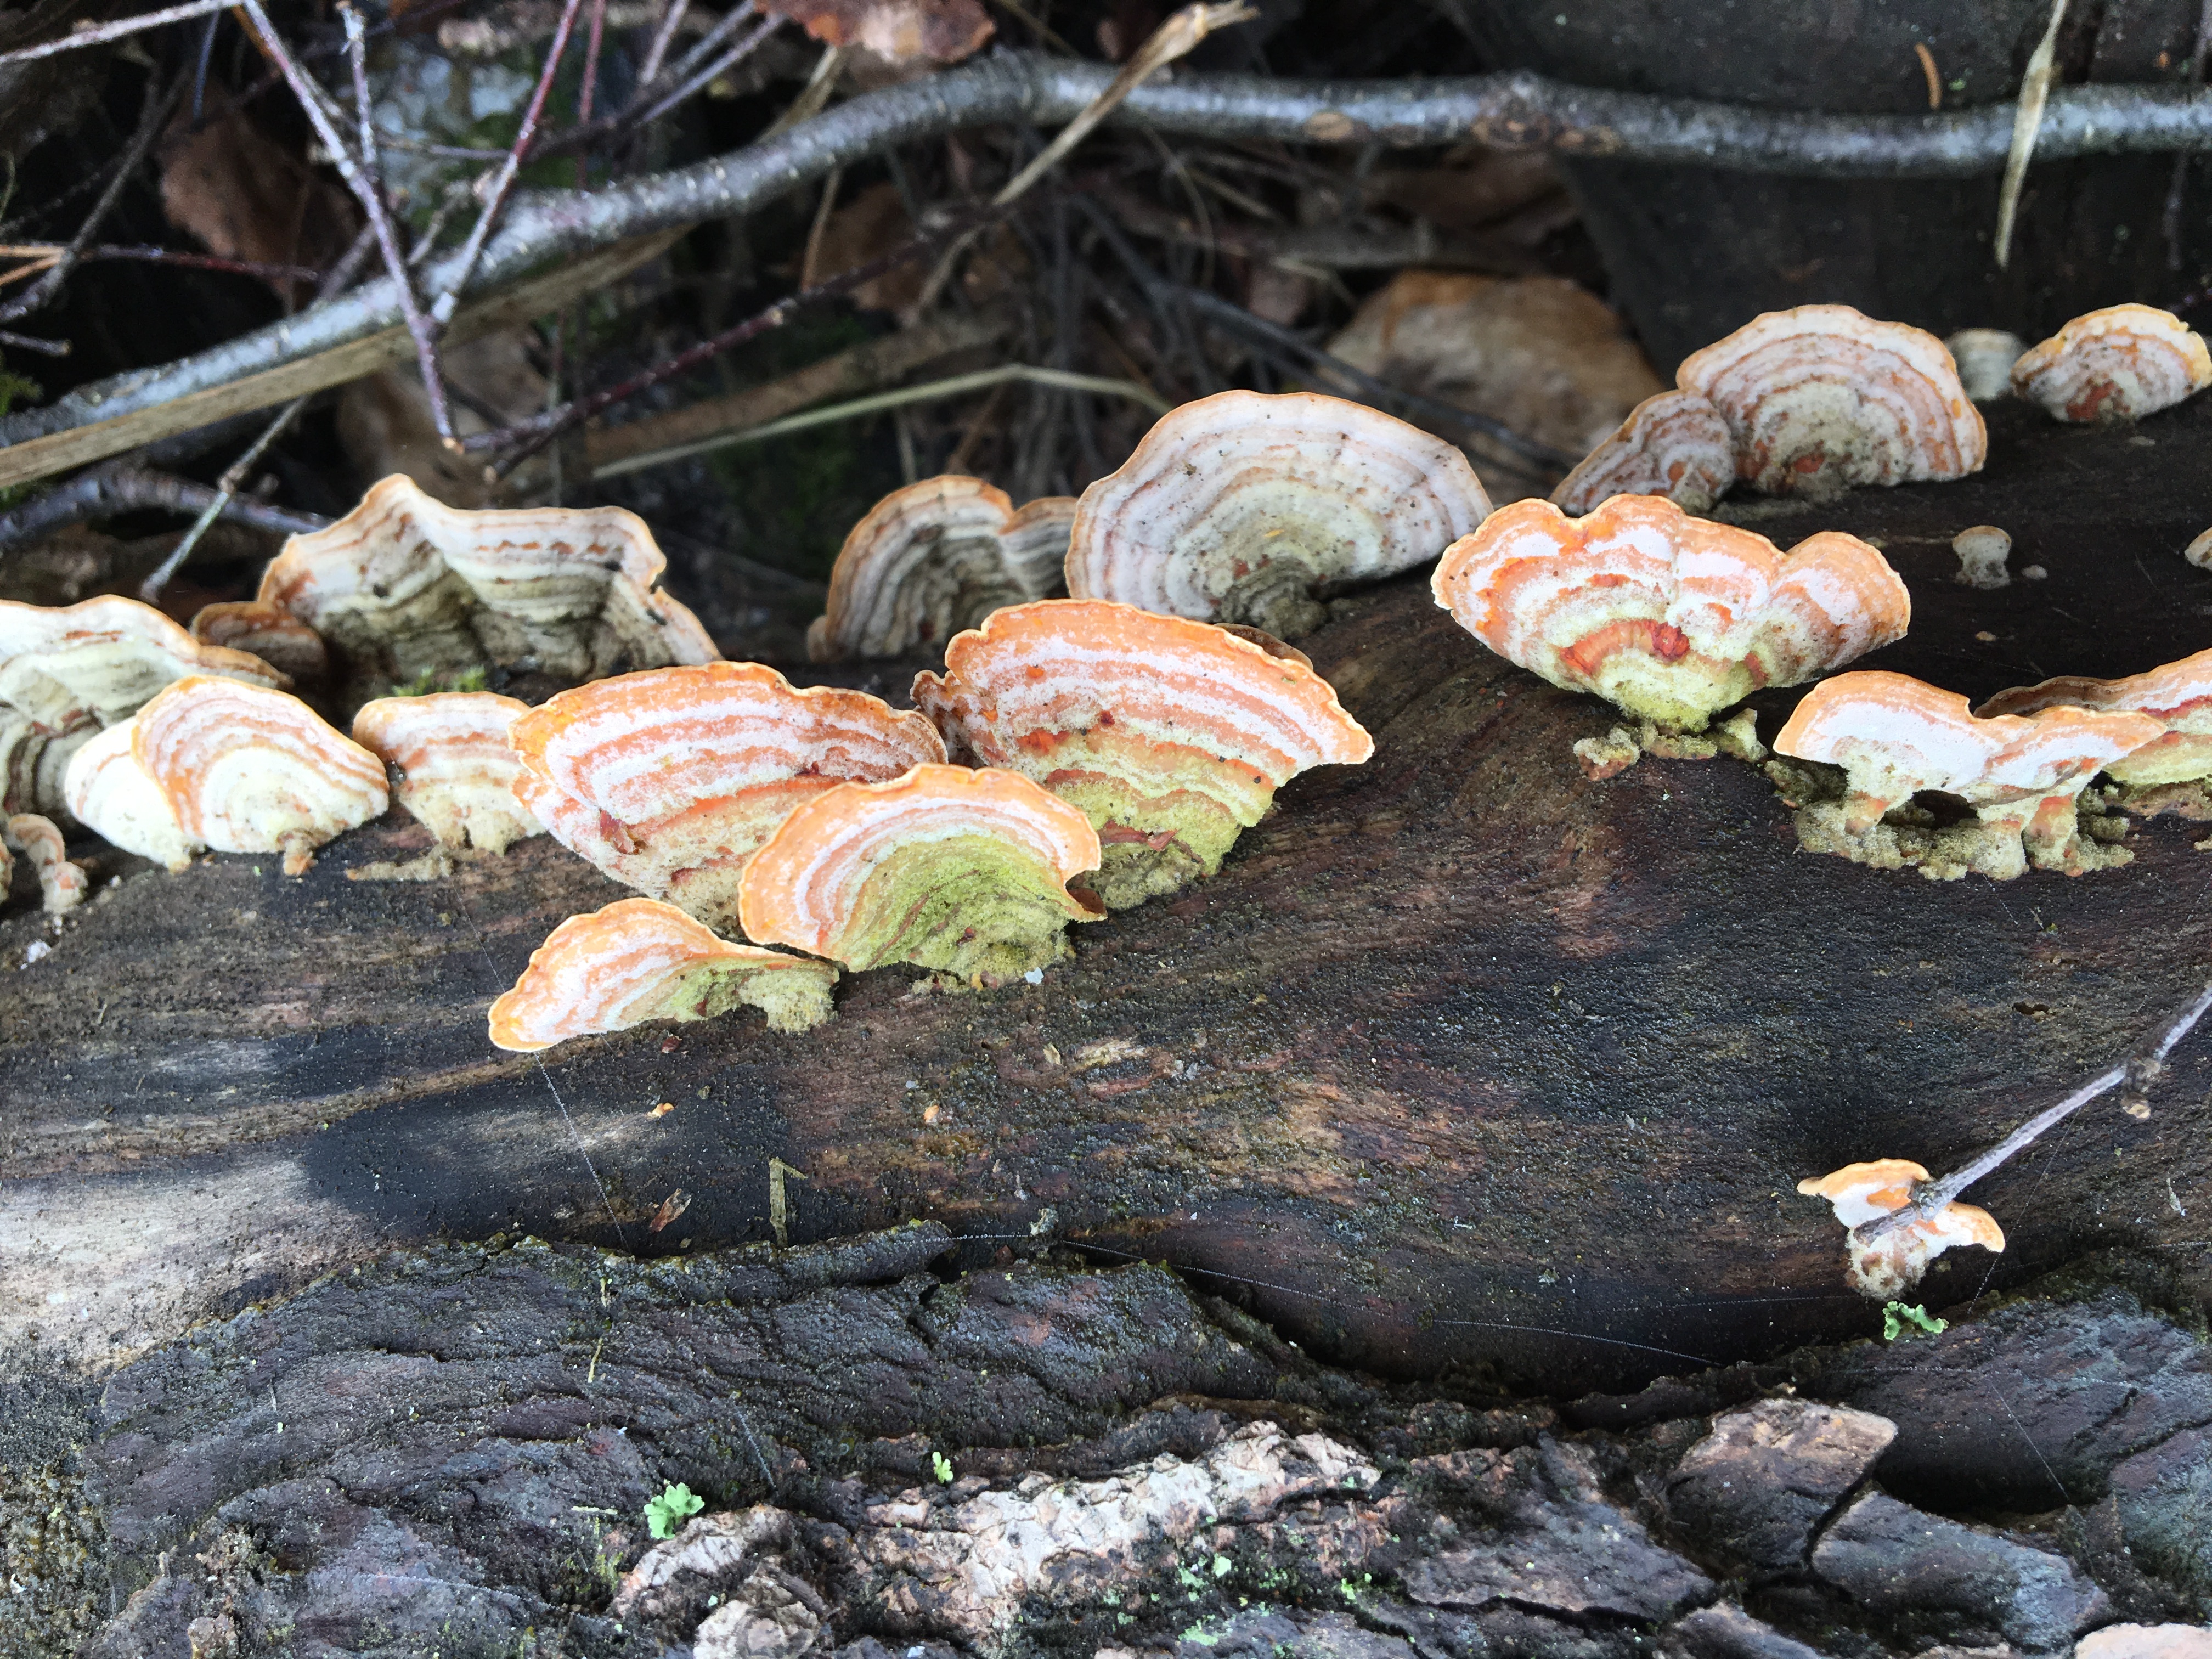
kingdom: Fungi
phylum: Basidiomycota
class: Agaricomycetes
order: Russulales
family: Stereaceae
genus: Stereum
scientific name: Stereum subtomentosum
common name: Yellowing curtain crust
